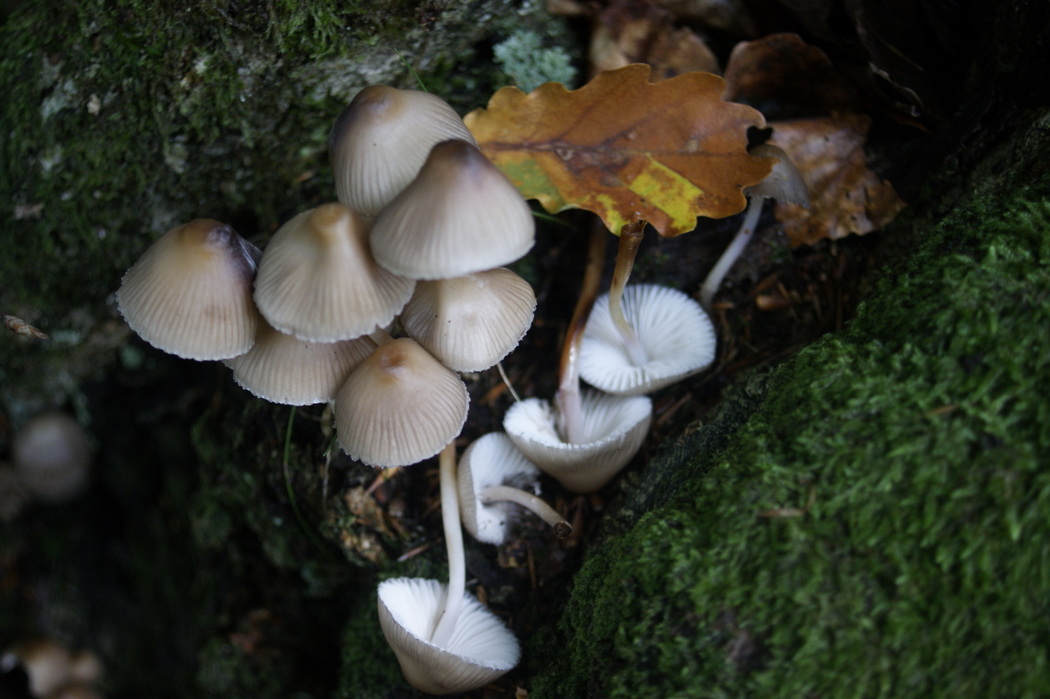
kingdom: Fungi
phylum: Basidiomycota
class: Agaricomycetes
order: Agaricales
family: Mycenaceae
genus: Mycena
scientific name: Mycena inclinata
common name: nikkende huesvamp
